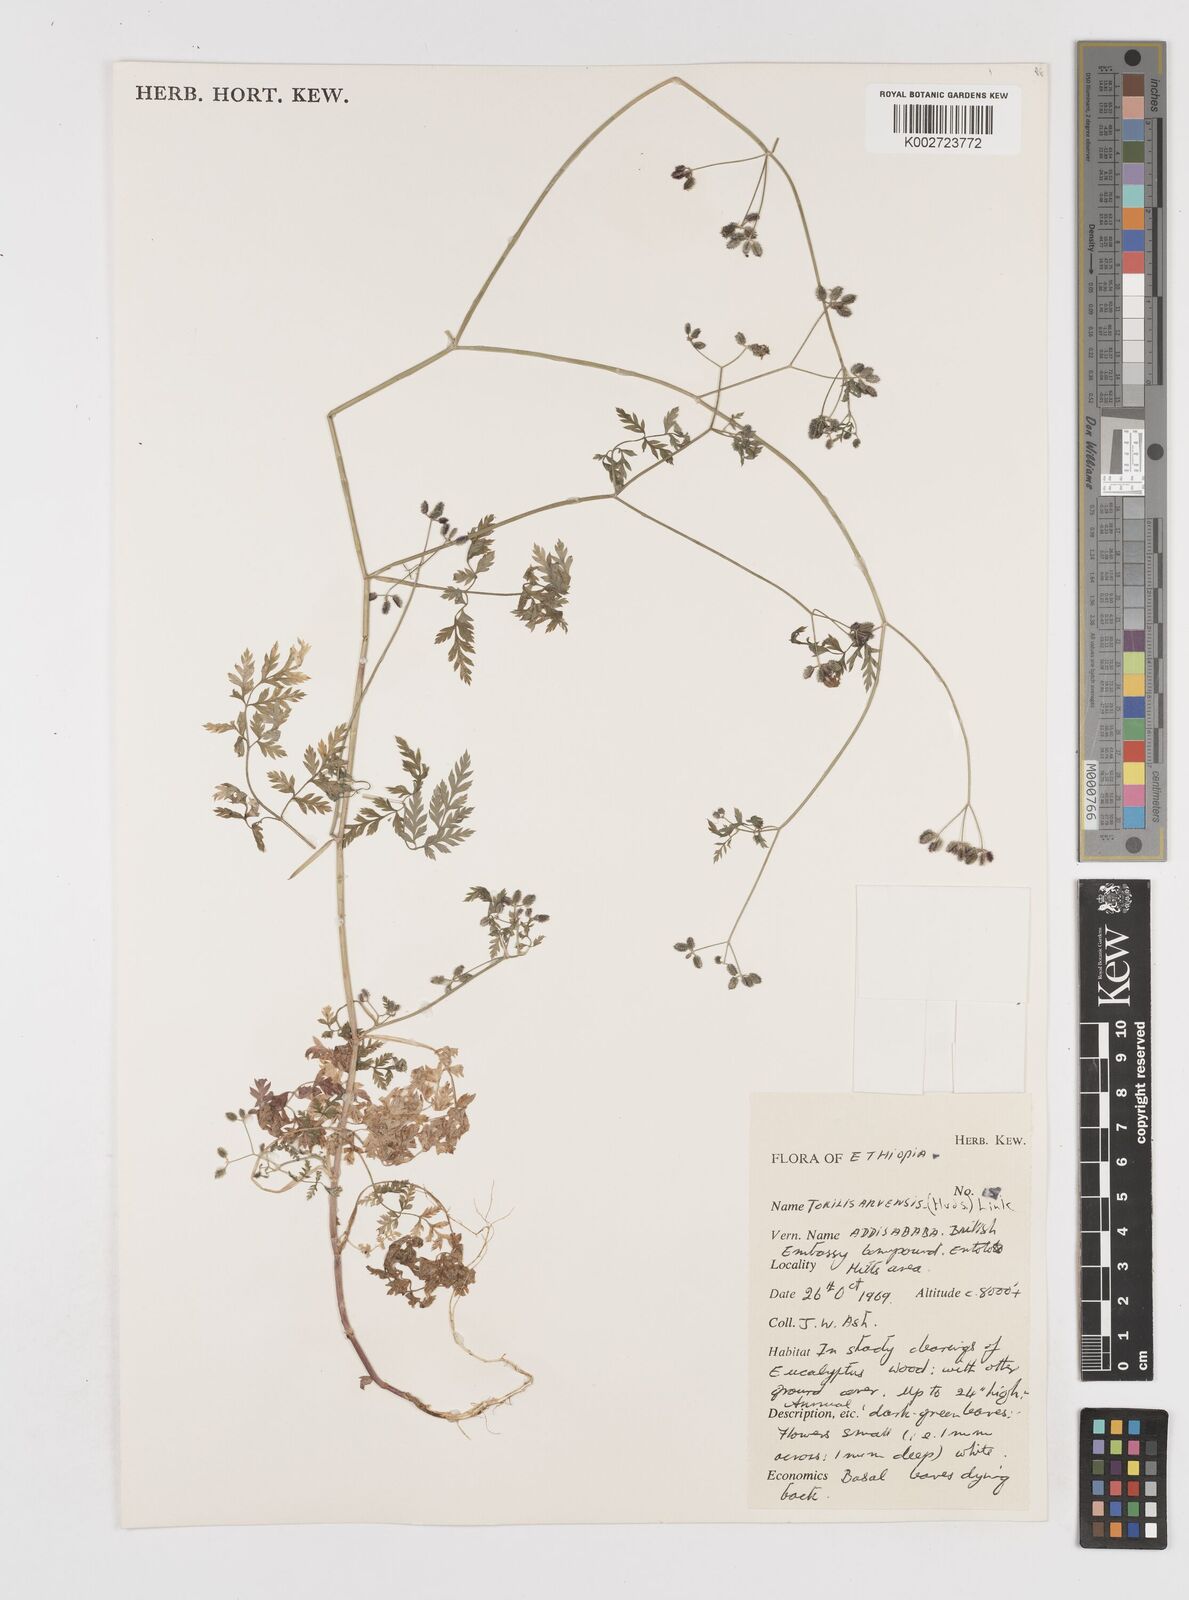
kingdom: Plantae
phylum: Tracheophyta
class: Magnoliopsida
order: Apiales
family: Apiaceae
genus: Torilis
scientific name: Torilis arvensis
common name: Spreading hedge-parsley
